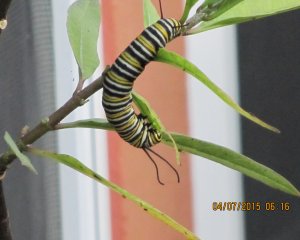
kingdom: Animalia
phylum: Arthropoda
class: Insecta
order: Lepidoptera
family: Nymphalidae
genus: Danaus
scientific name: Danaus plexippus
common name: Monarch
